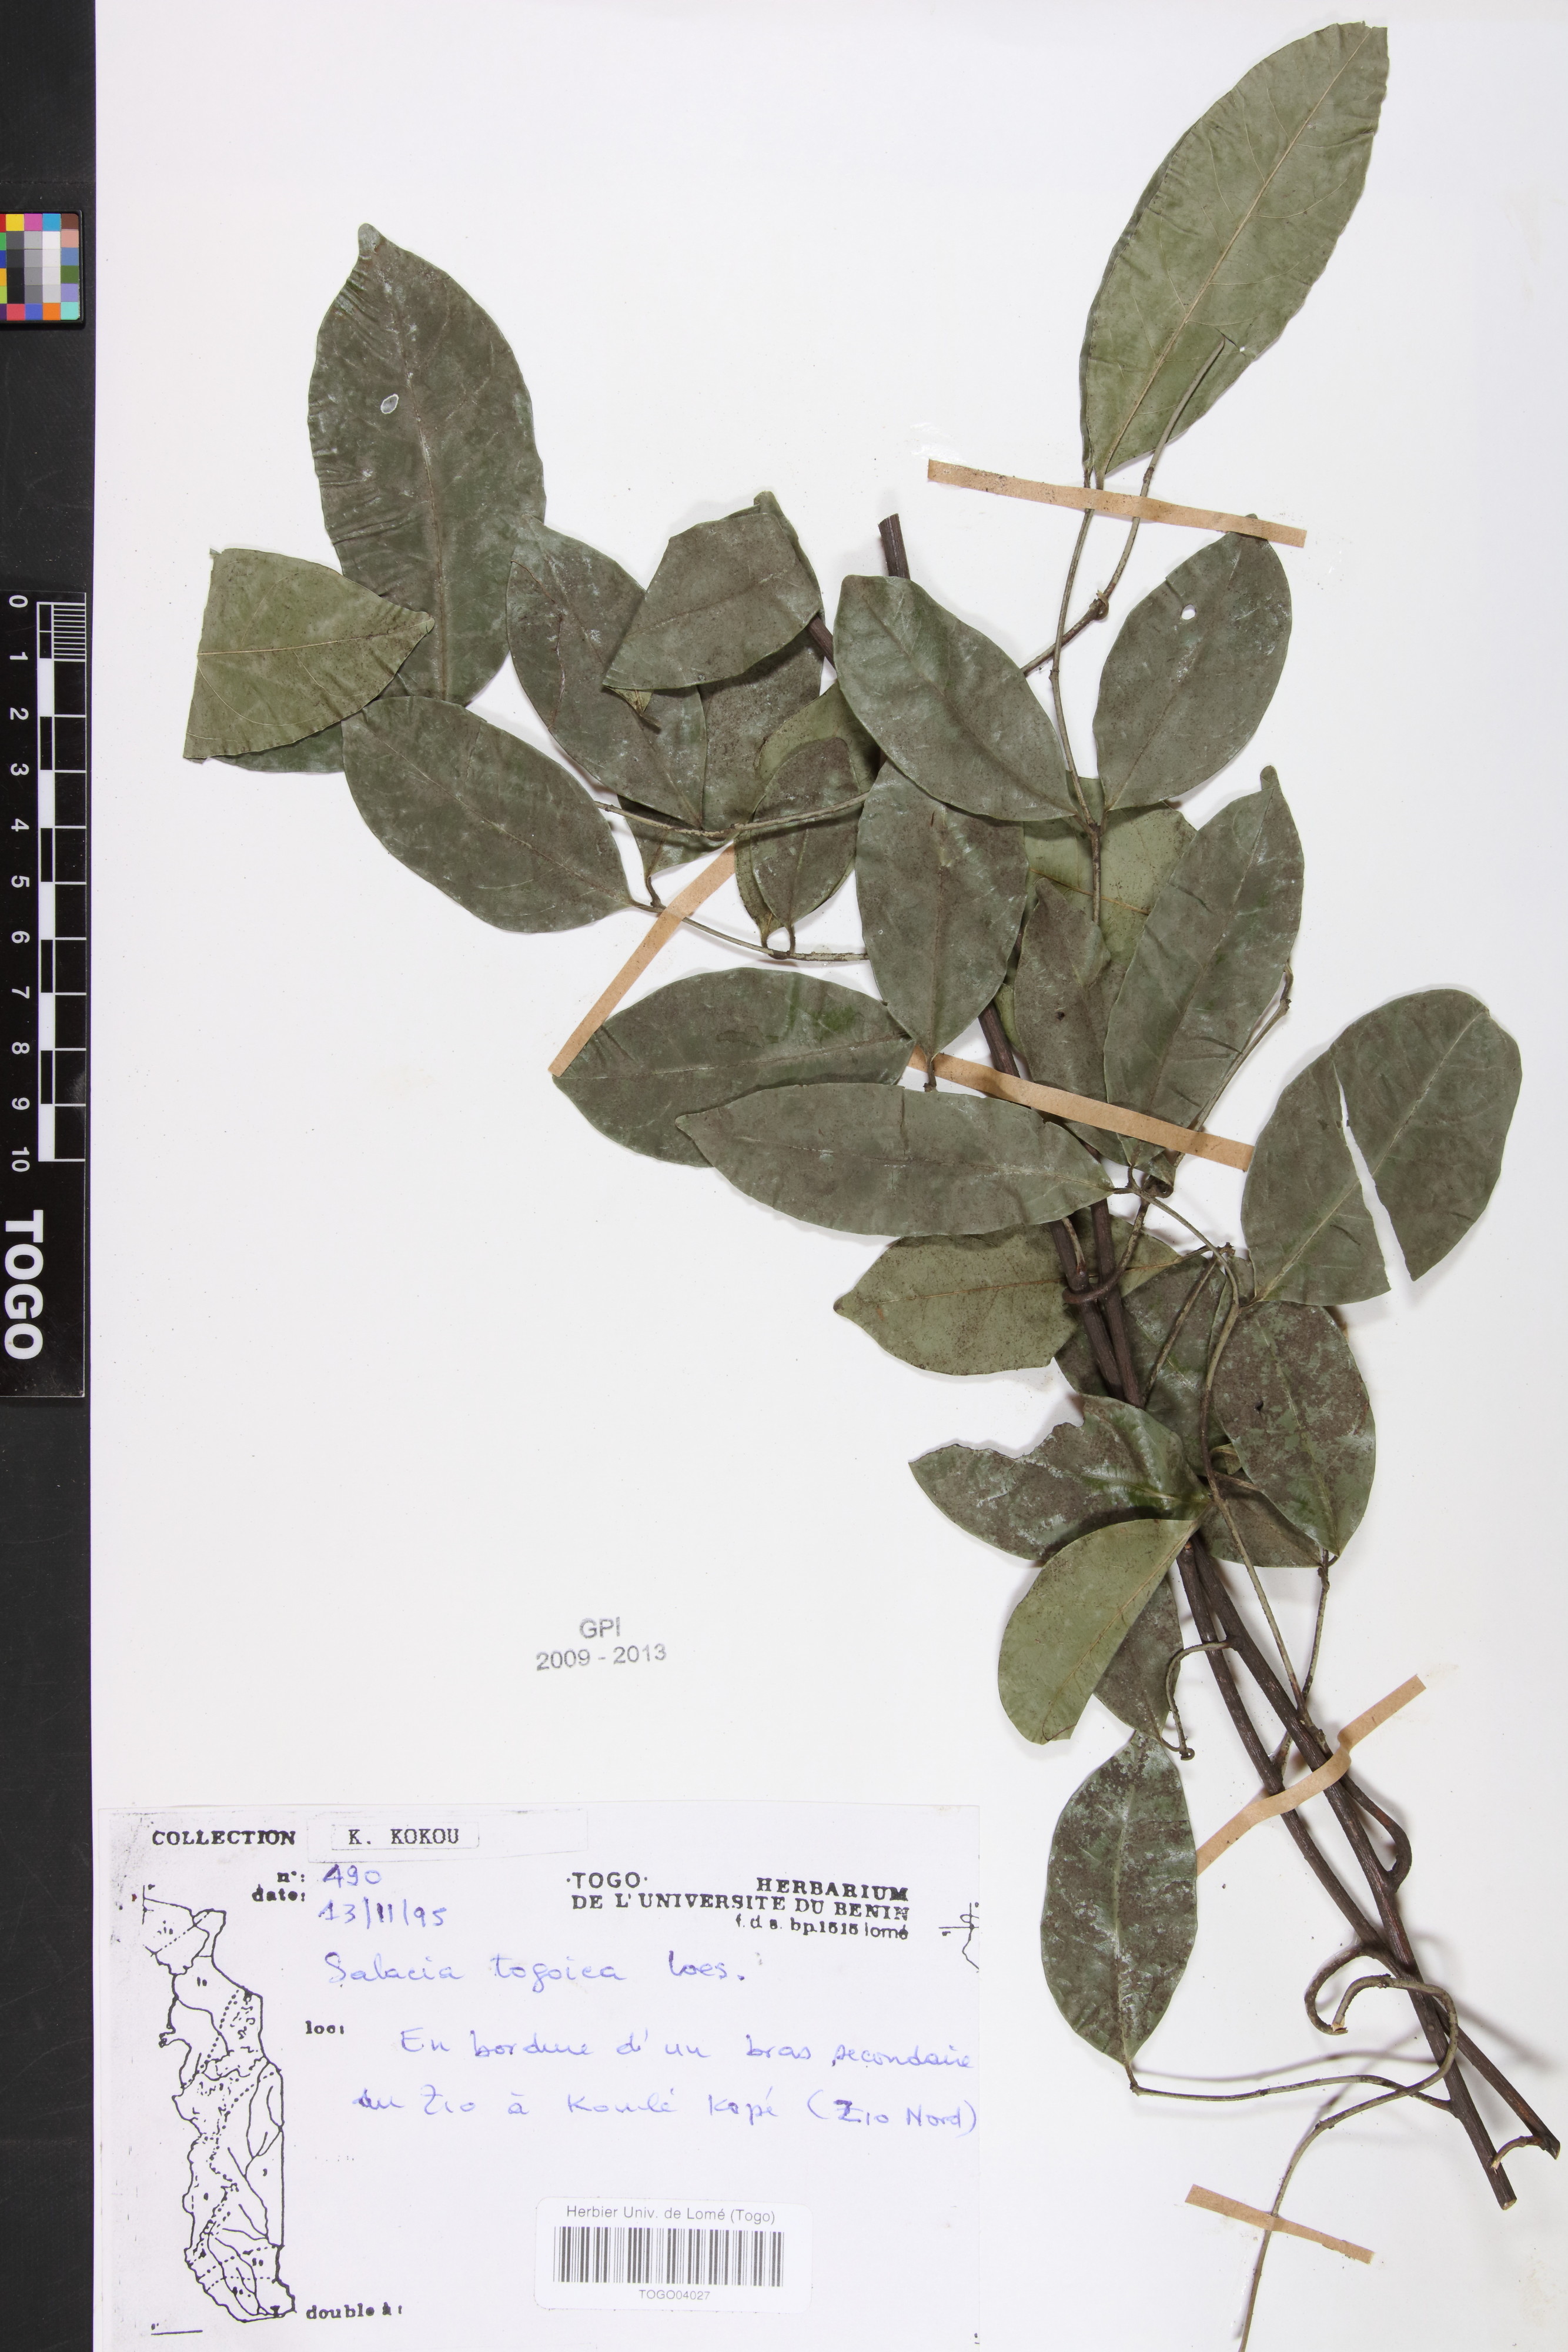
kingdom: Plantae
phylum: Tracheophyta
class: Magnoliopsida
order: Celastrales
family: Celastraceae
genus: Salacia
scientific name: Salacia togoica
